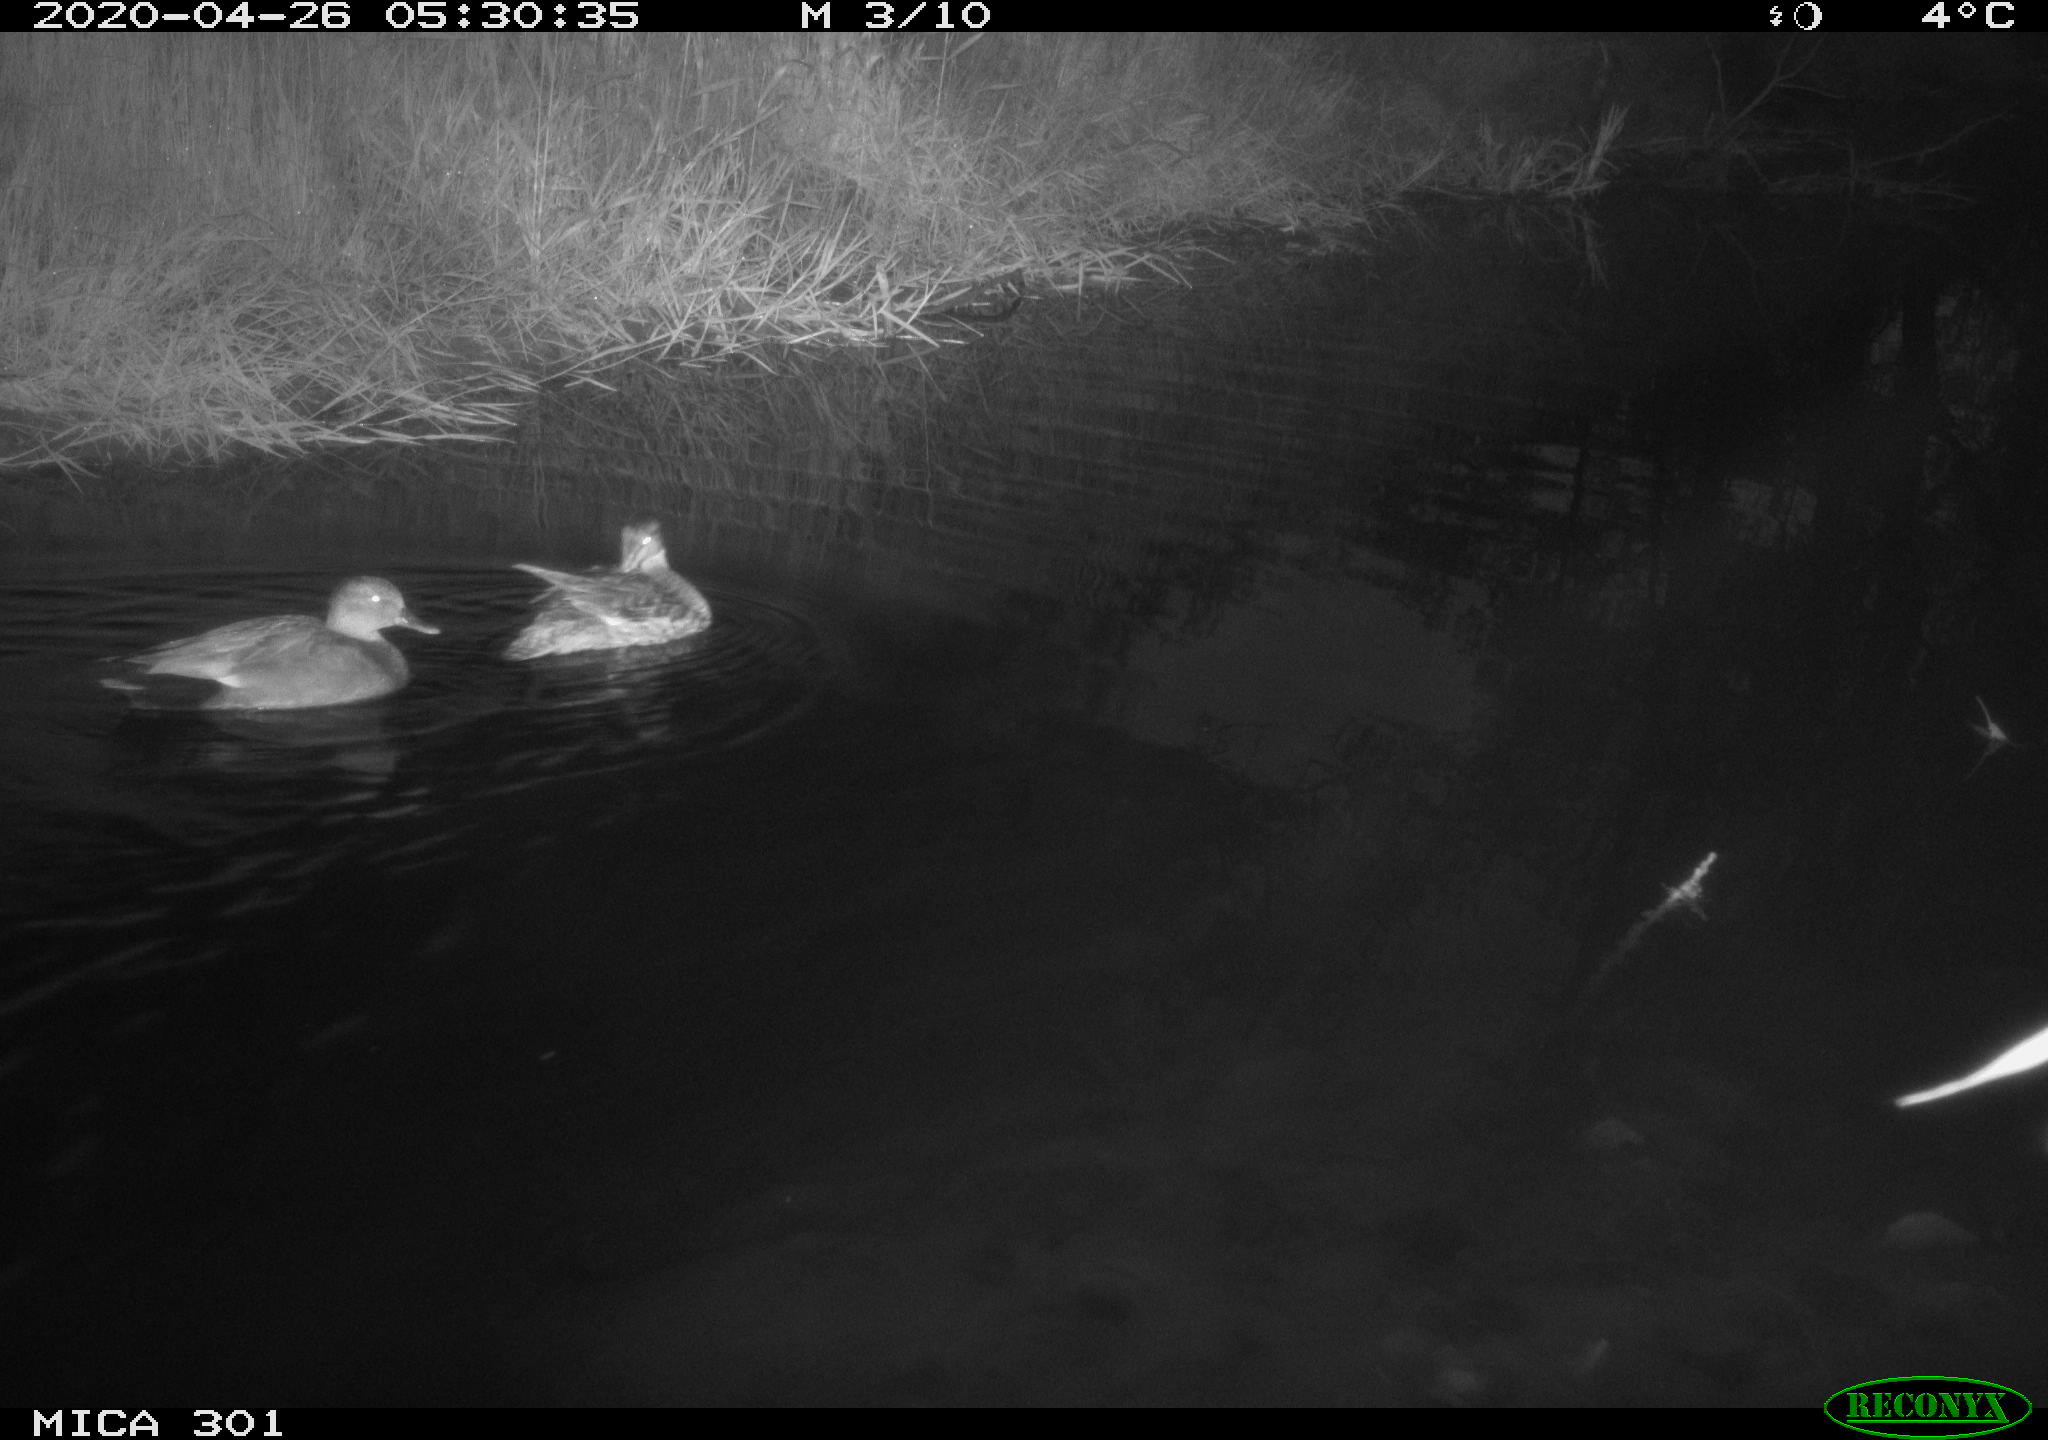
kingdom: Animalia
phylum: Chordata
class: Aves
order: Anseriformes
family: Anatidae
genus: Mareca
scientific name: Mareca strepera
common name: Gadwall
